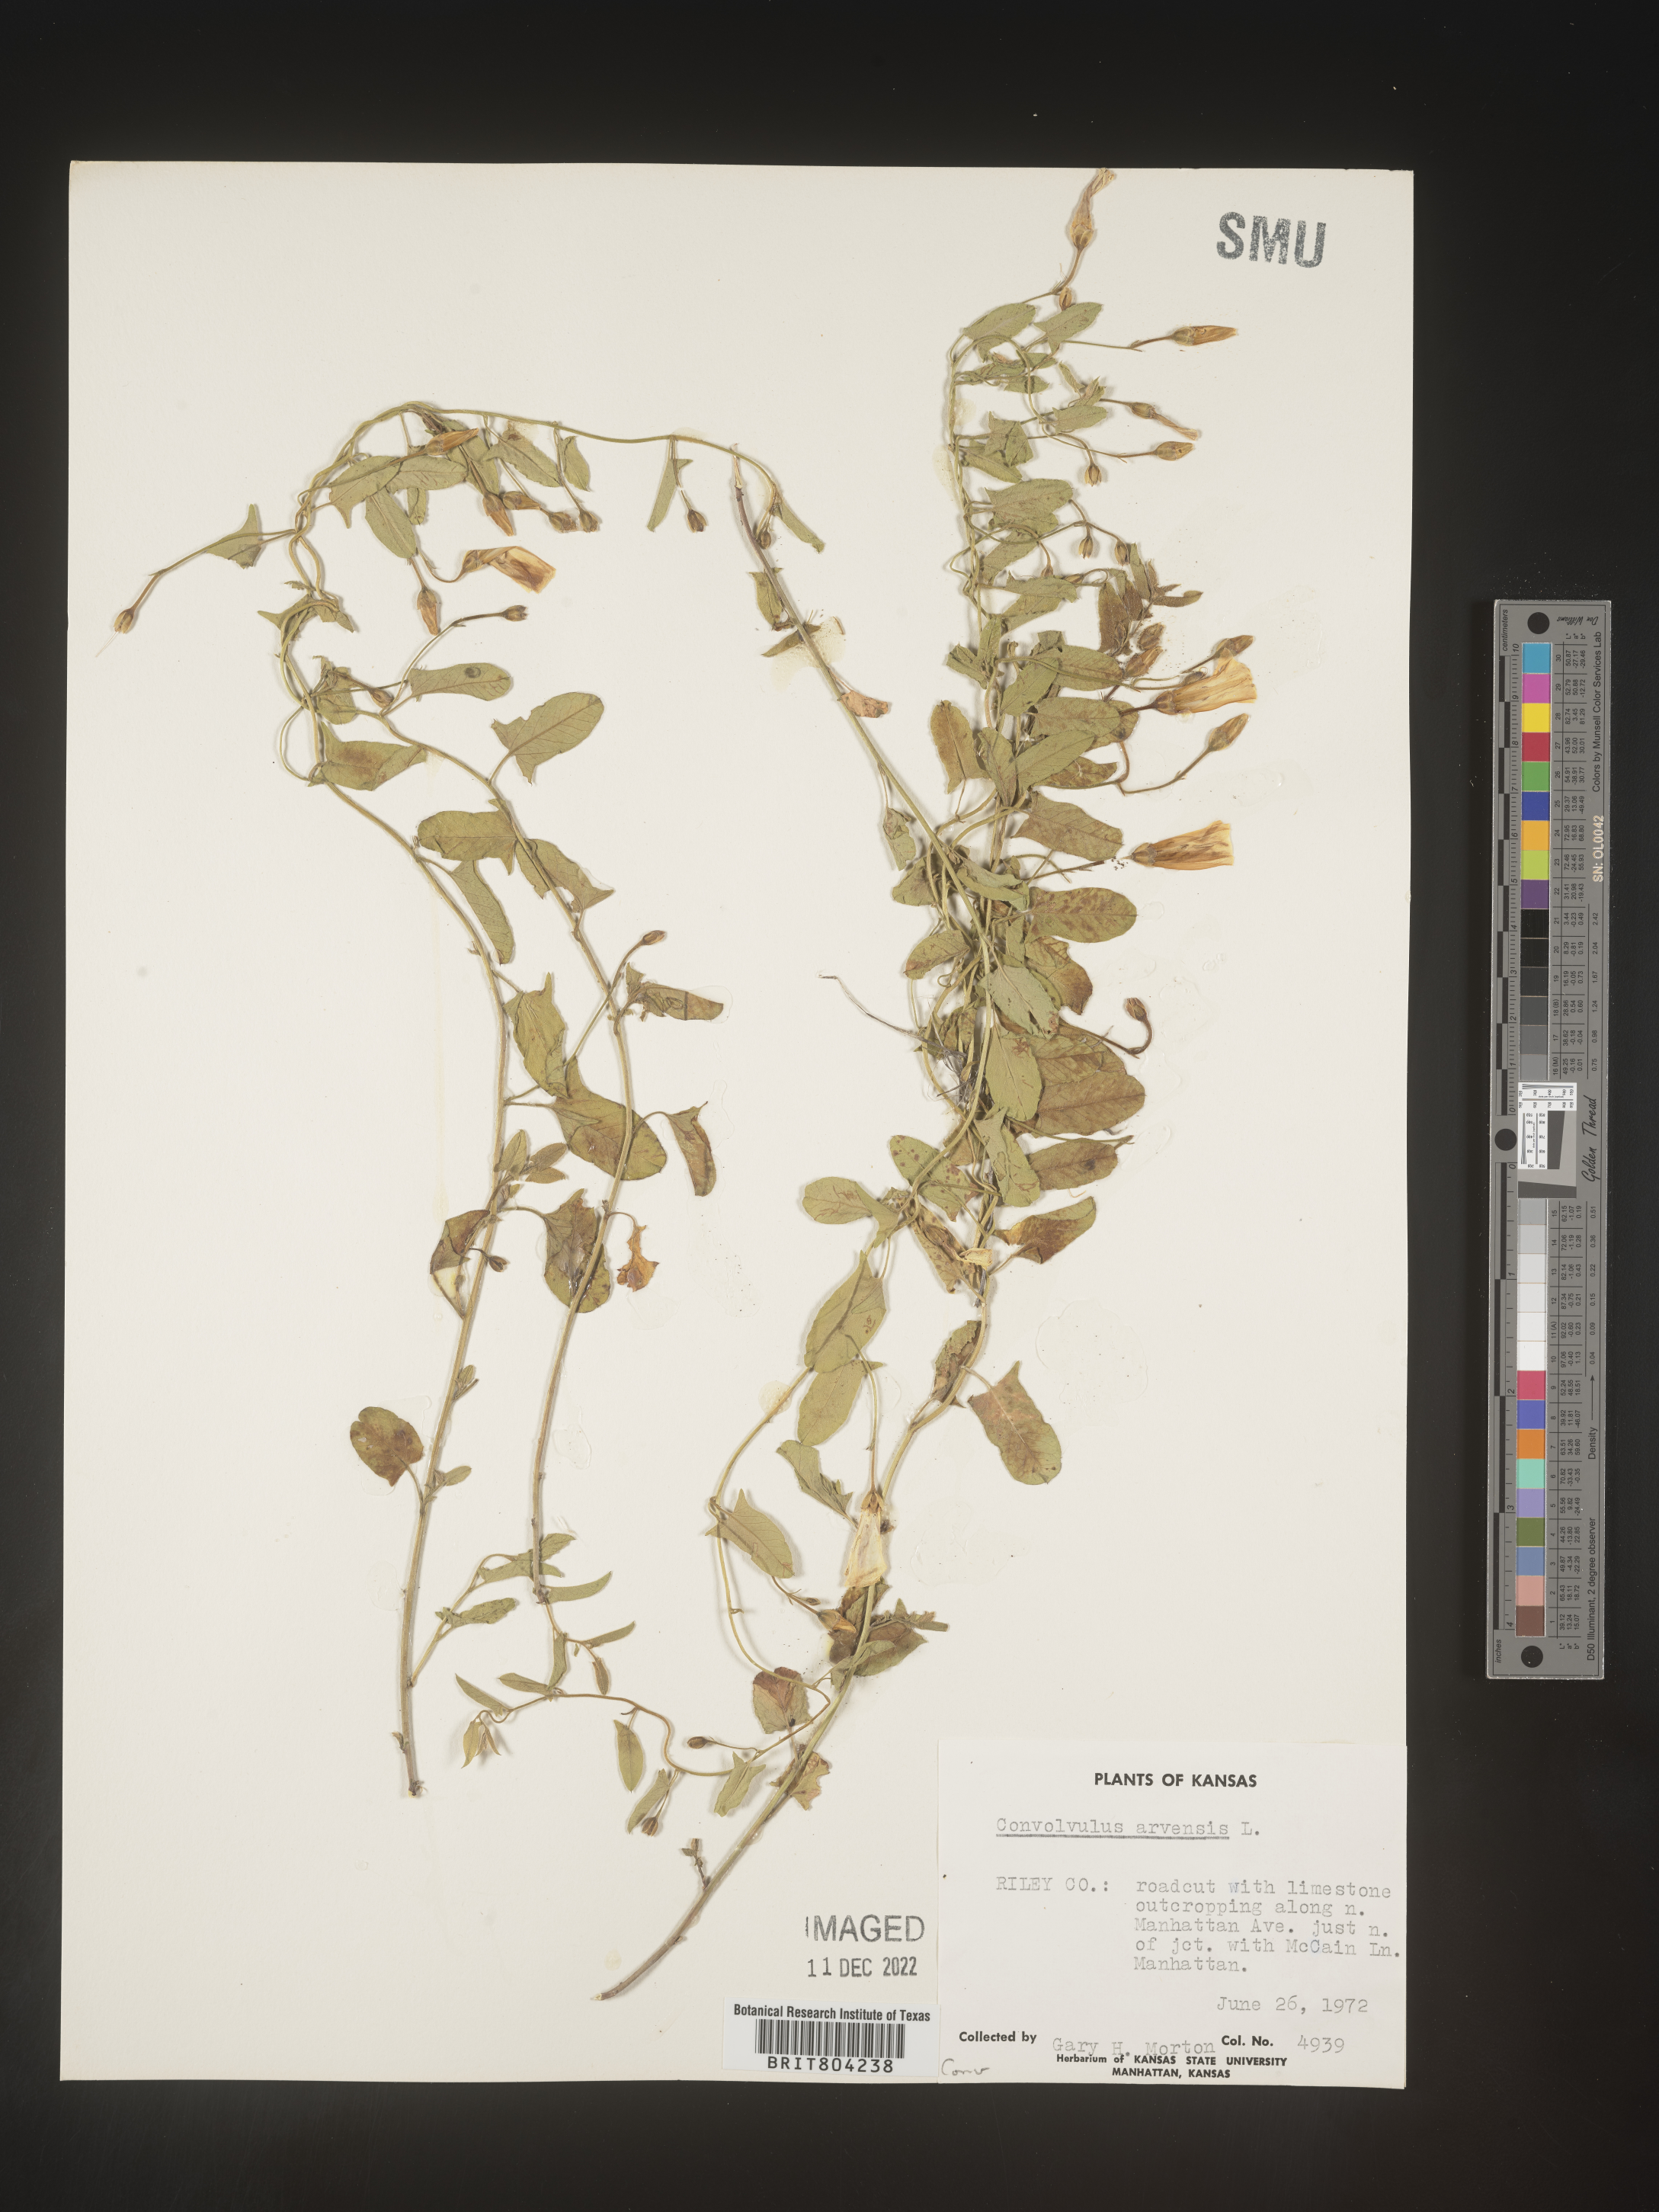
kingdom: Plantae
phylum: Tracheophyta
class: Magnoliopsida
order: Solanales
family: Convolvulaceae
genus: Convolvulus
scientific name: Convolvulus arvensis
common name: Field bindweed
